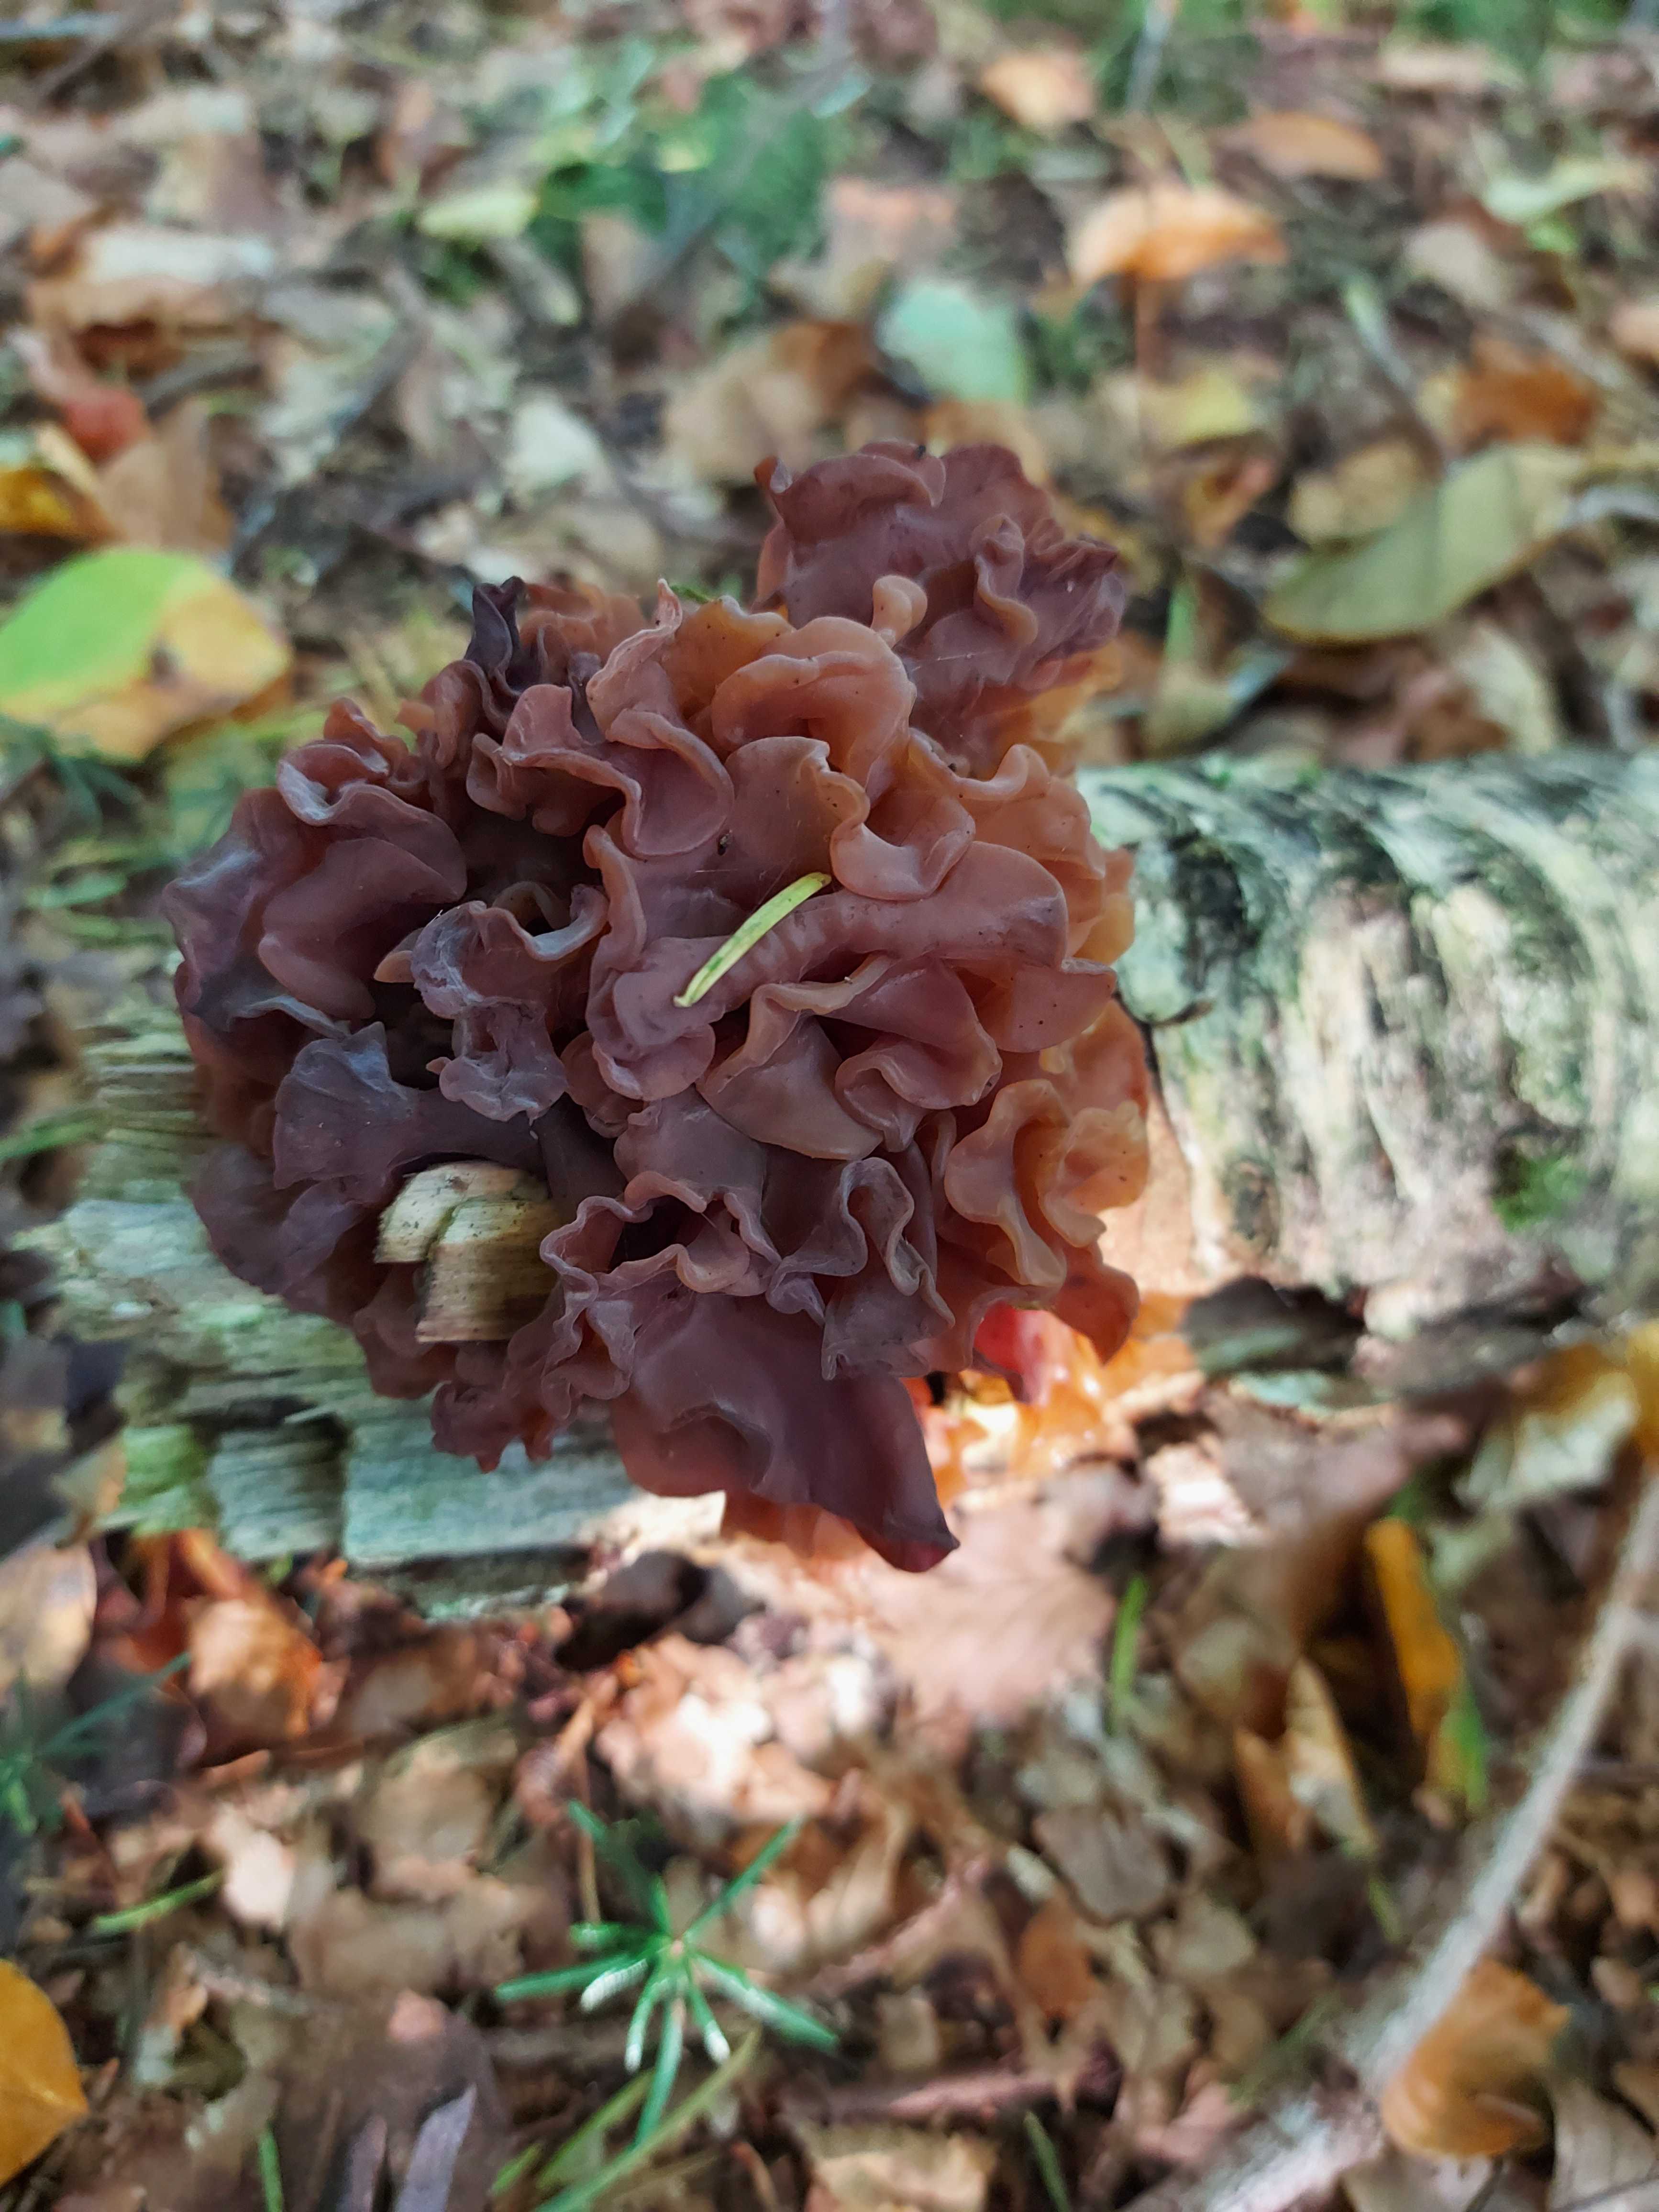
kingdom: Fungi
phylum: Basidiomycota
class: Tremellomycetes
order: Tremellales
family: Tremellaceae
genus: Phaeotremella
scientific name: Phaeotremella frondosa
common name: kæmpe-bævresvamp
